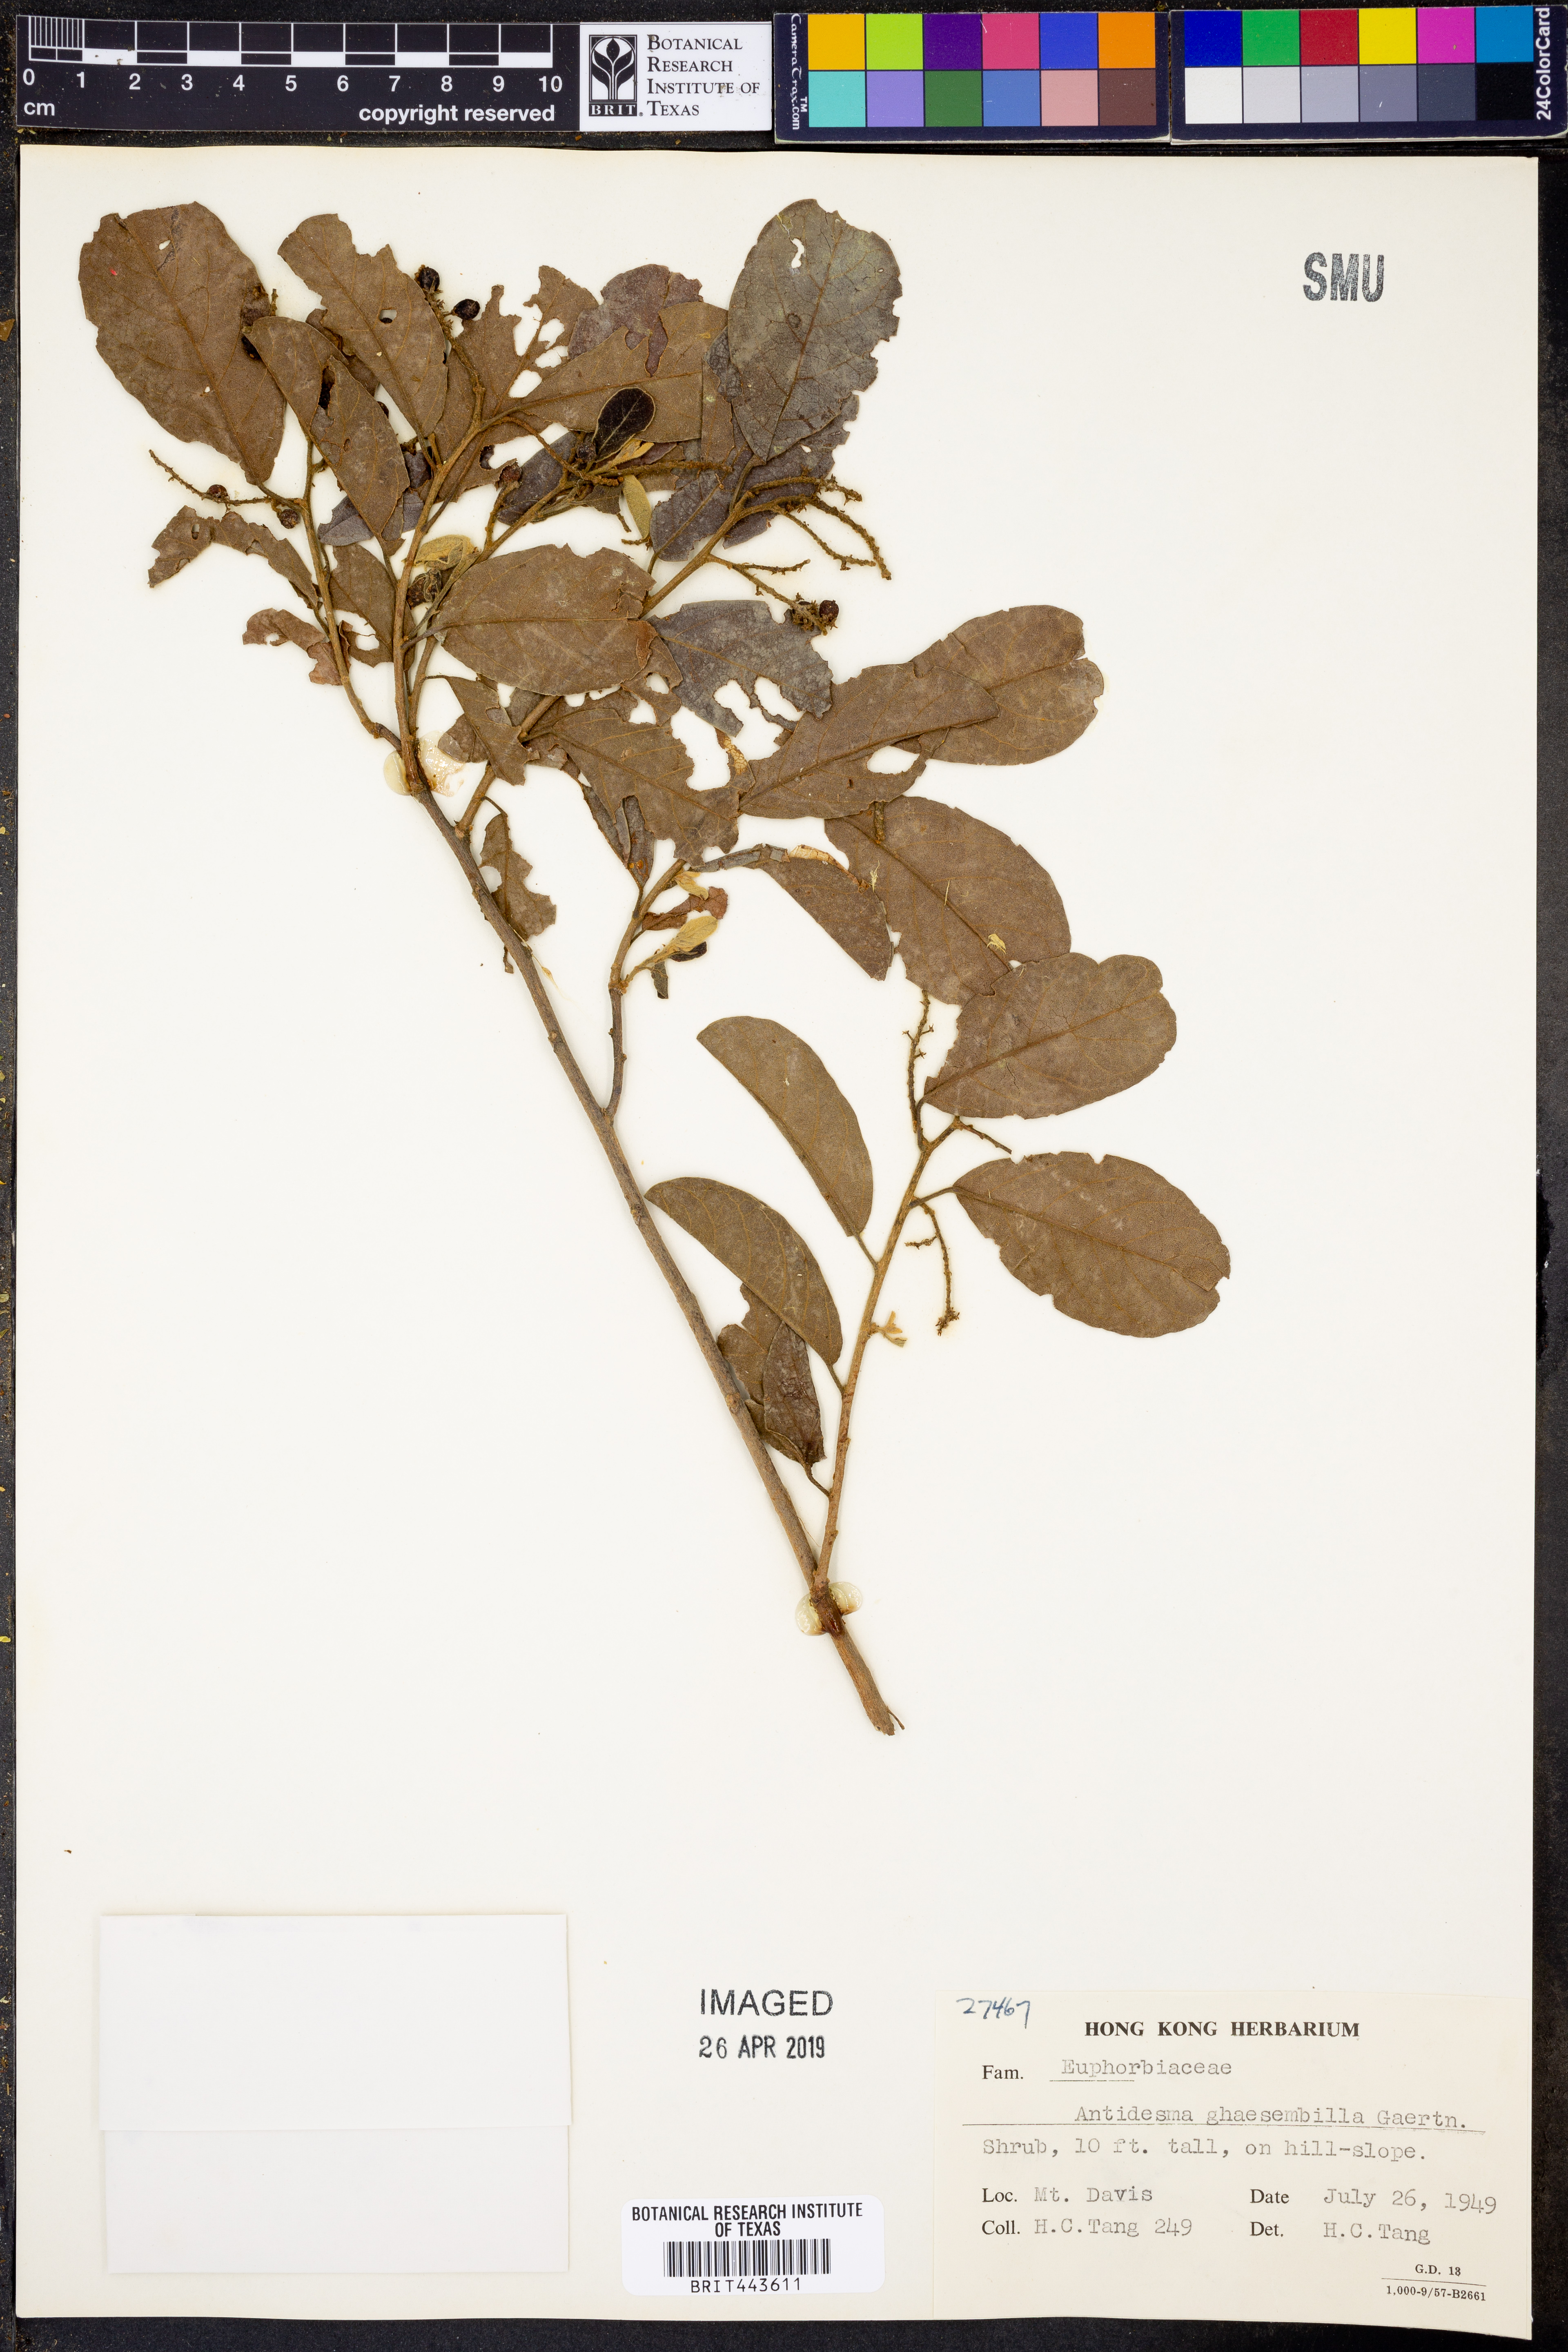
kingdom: Plantae
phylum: Tracheophyta
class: Magnoliopsida
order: Malpighiales
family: Phyllanthaceae
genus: Antidesma
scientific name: Antidesma ghaesembilla
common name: Black currant-tree
